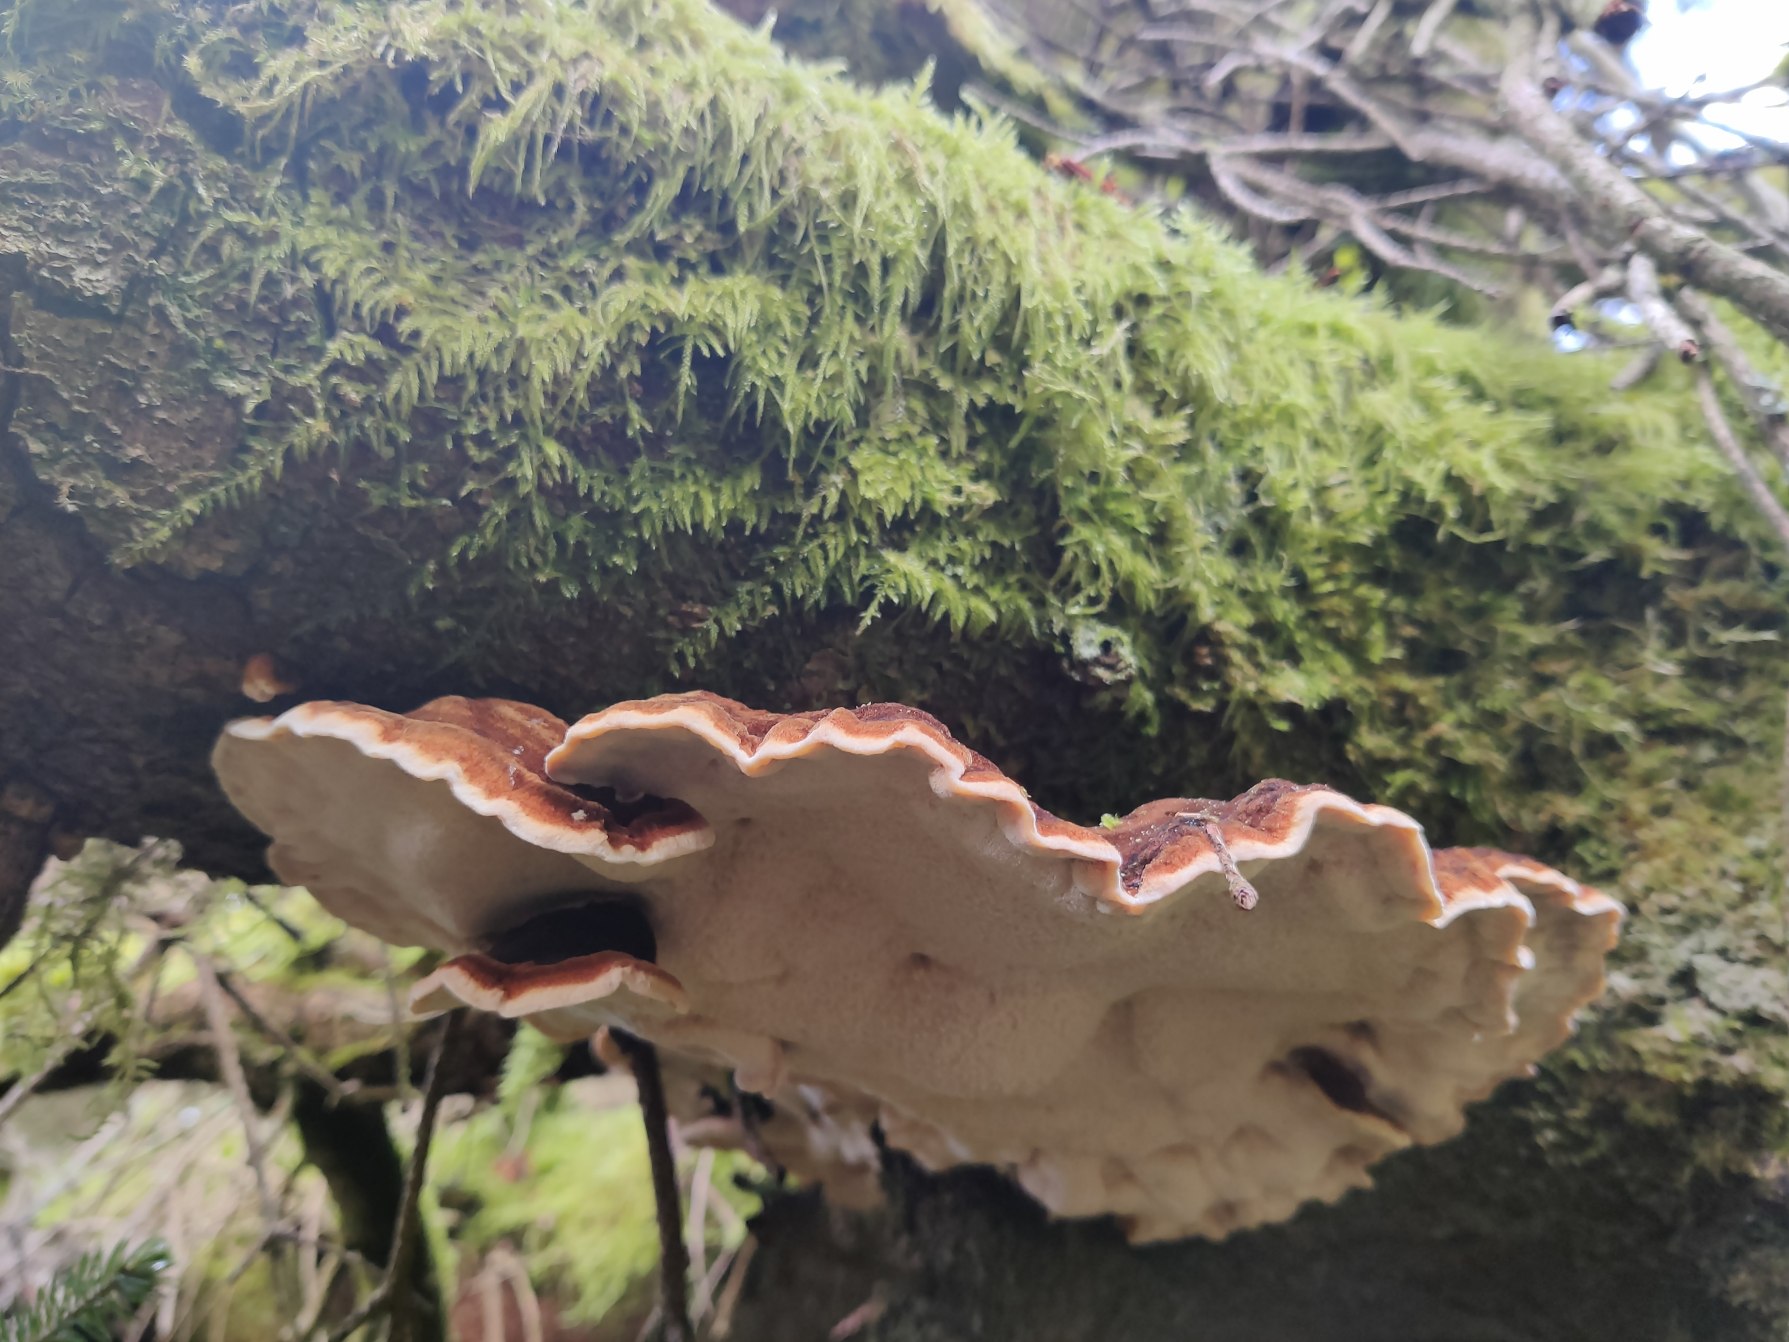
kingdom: Fungi
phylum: Basidiomycota
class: Agaricomycetes
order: Polyporales
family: Ischnodermataceae
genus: Ischnoderma
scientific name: Ischnoderma benzoinum
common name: Gran-tjæreporesvamp
